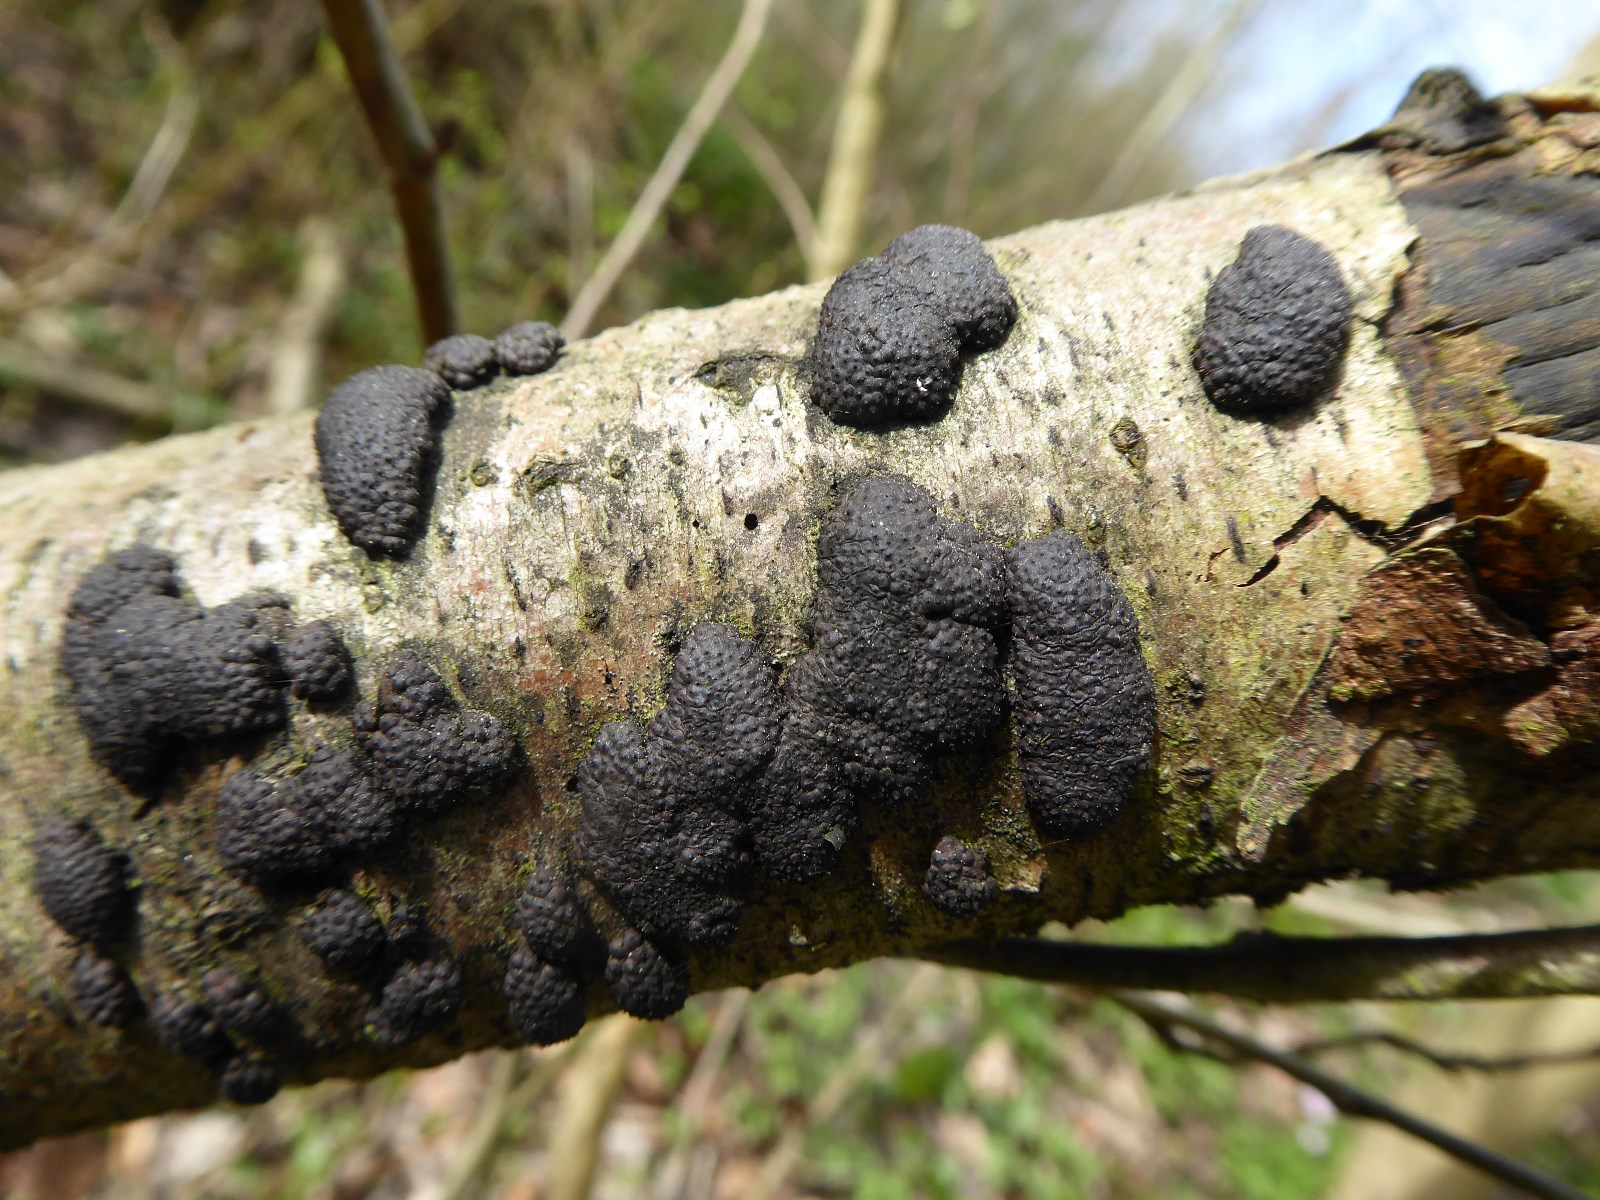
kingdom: Fungi
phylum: Ascomycota
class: Sordariomycetes
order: Xylariales
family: Hypoxylaceae
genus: Jackrogersella
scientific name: Jackrogersella multiformis
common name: foranderlig kulbær
